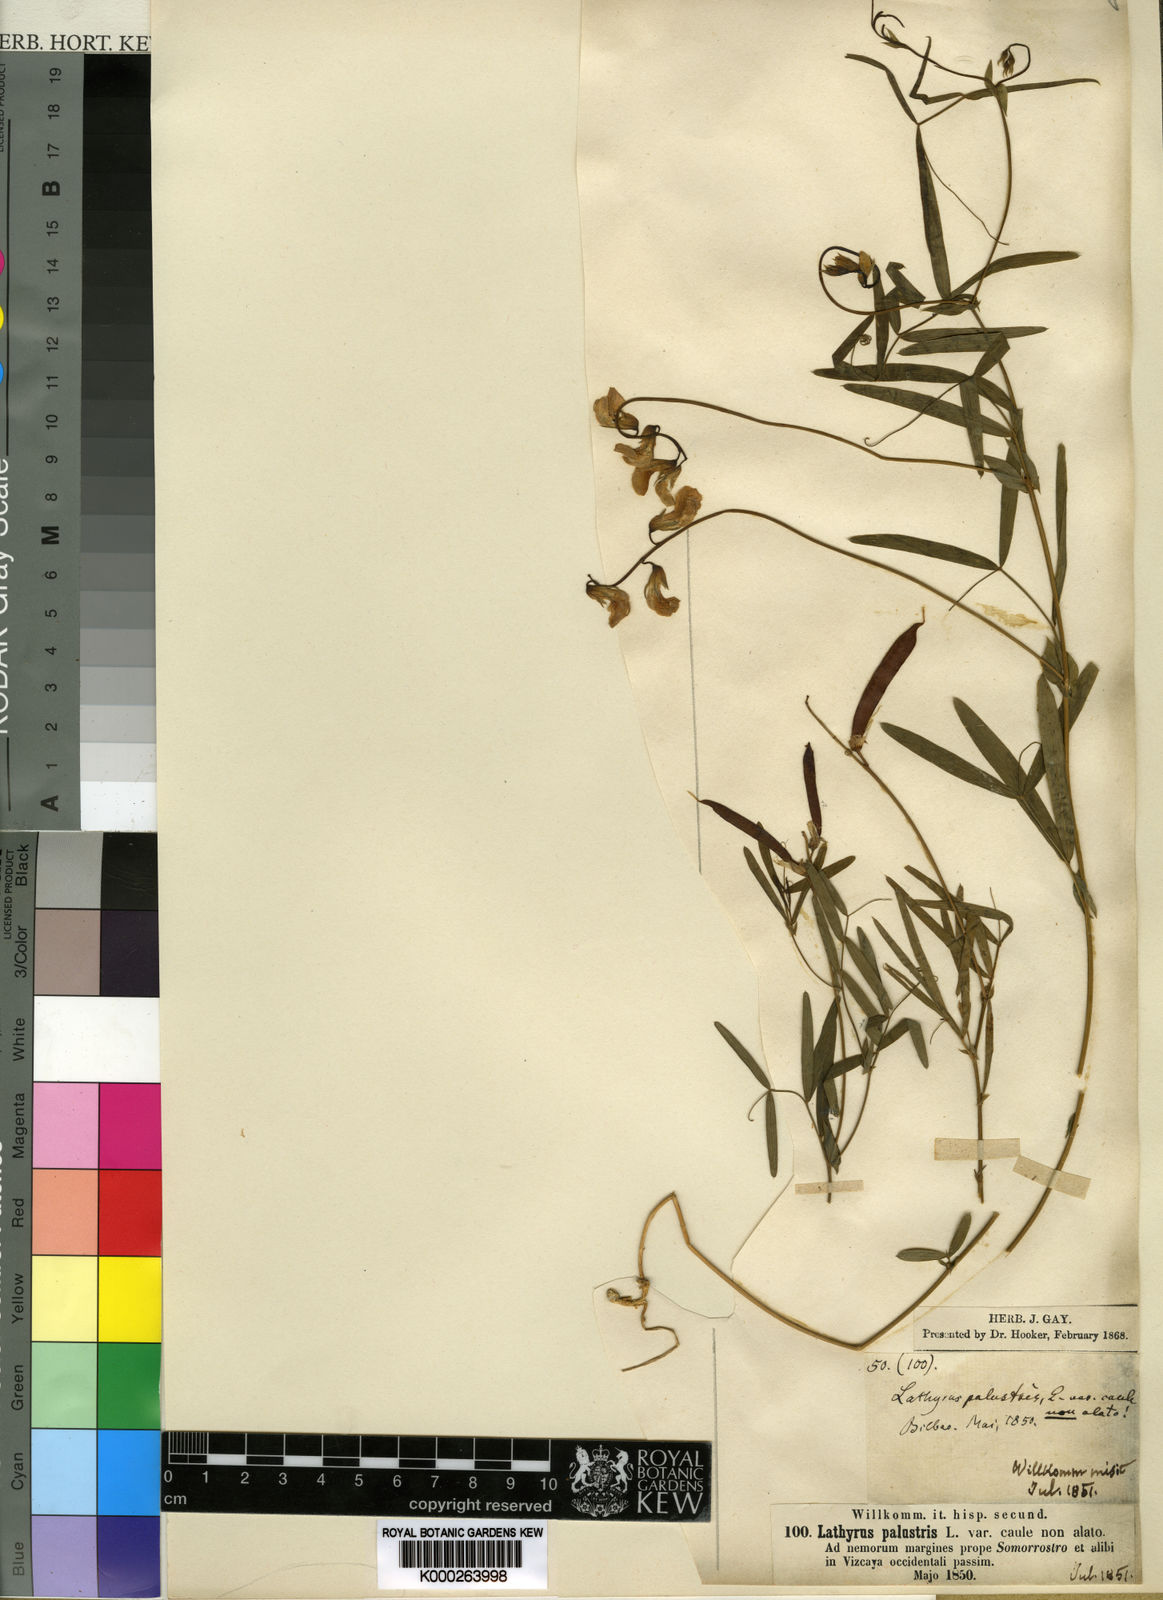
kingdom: Plantae
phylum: Tracheophyta
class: Magnoliopsida
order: Fabales
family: Fabaceae
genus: Lathyrus
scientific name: Lathyrus palustris
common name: Marsh pea
